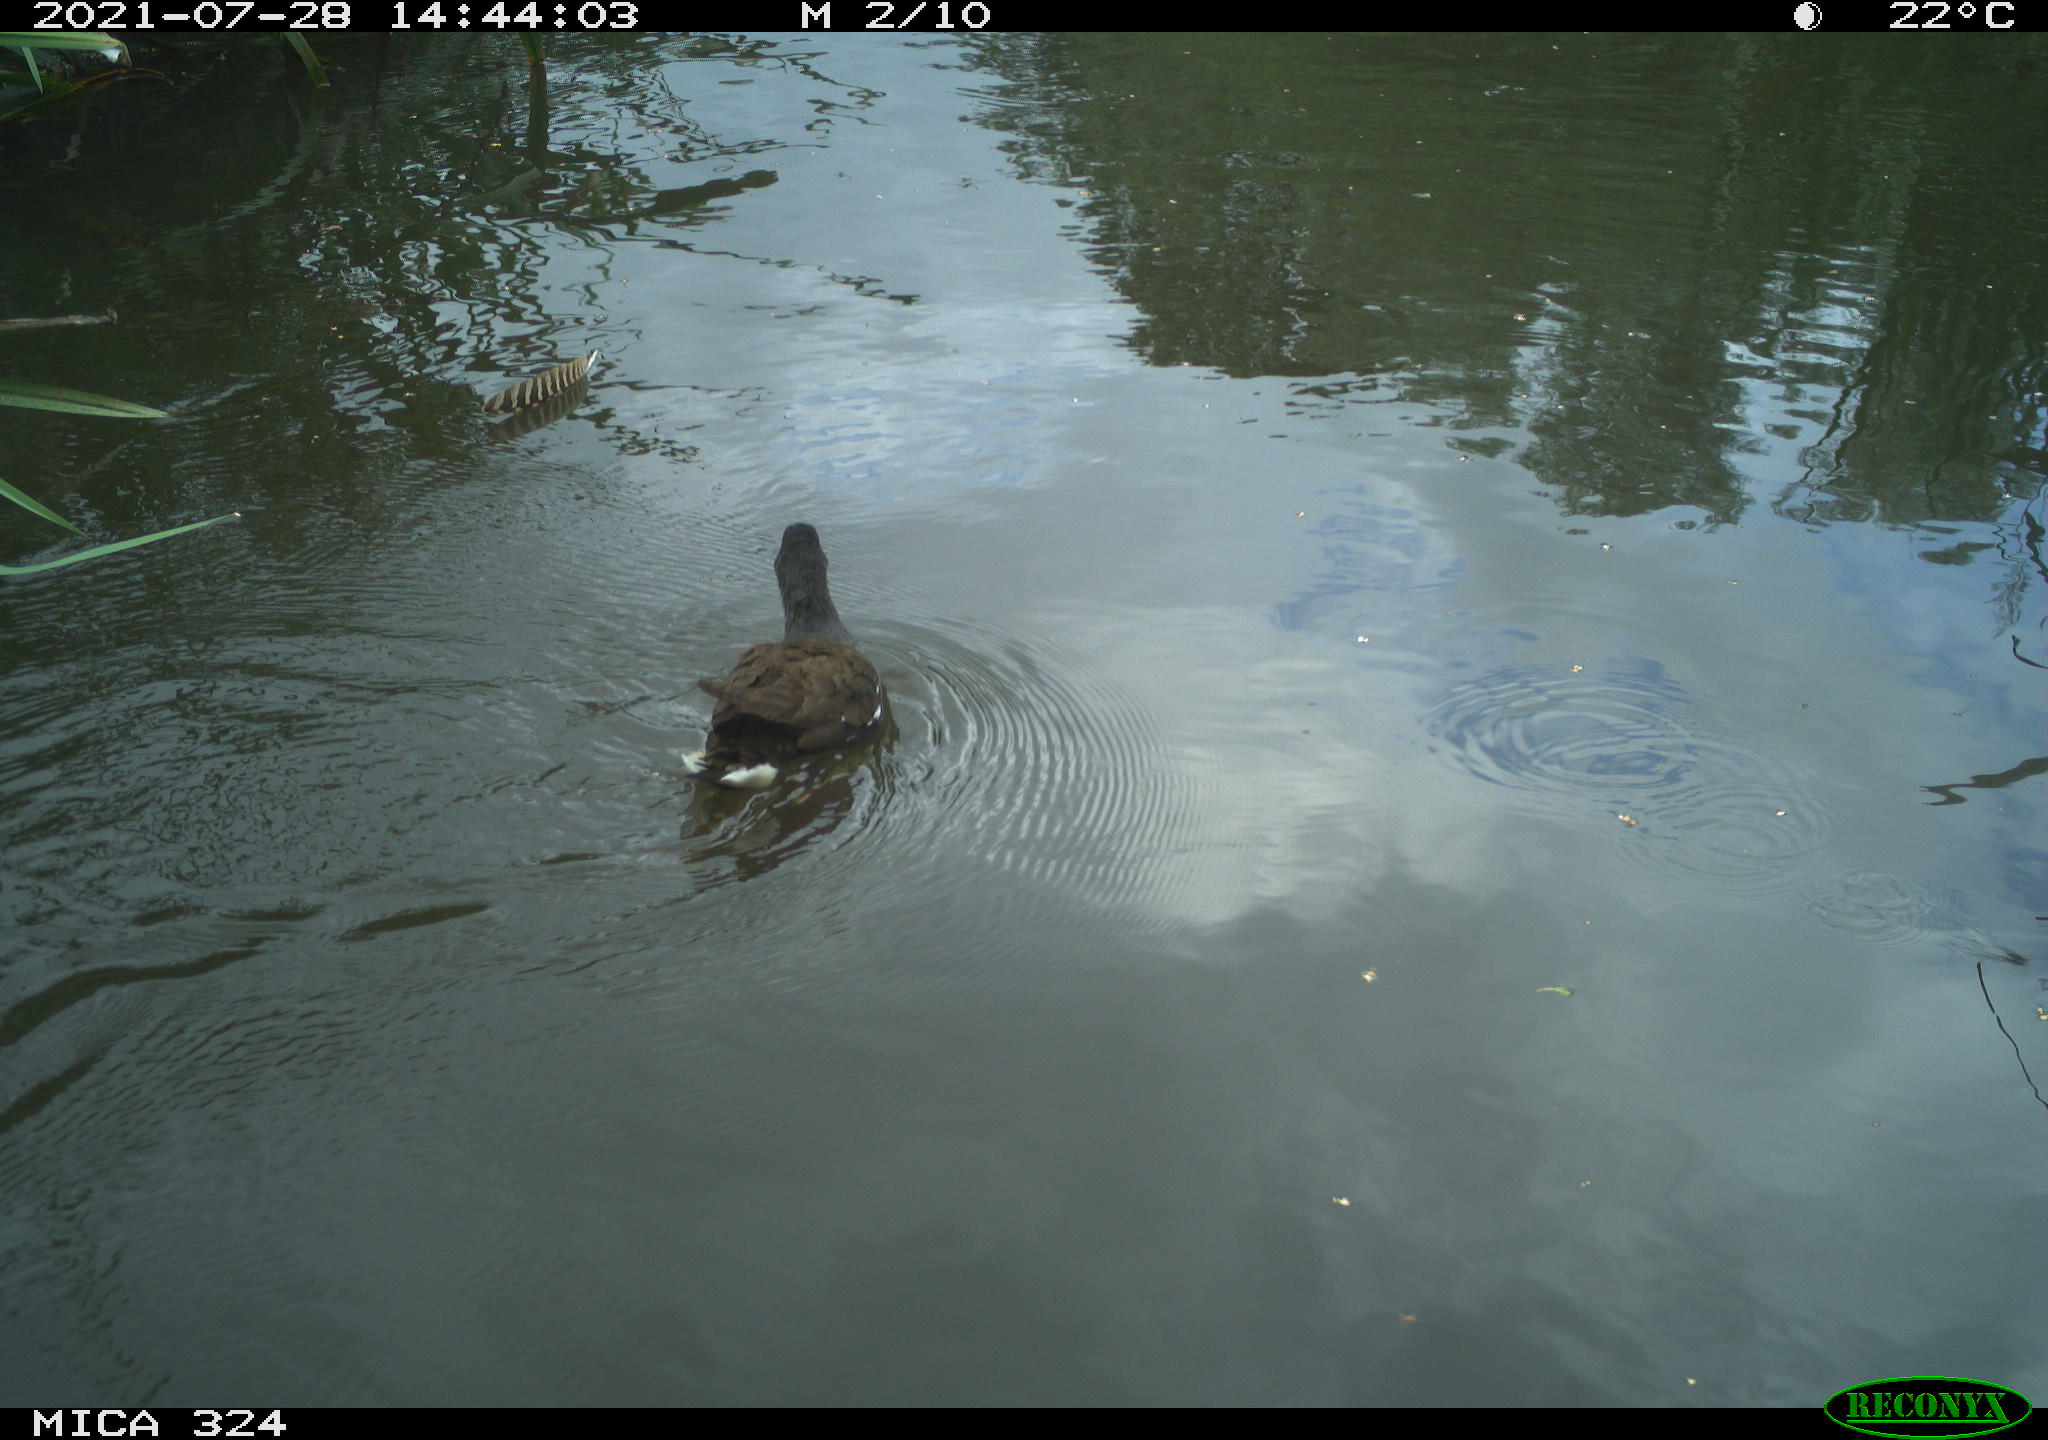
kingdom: Animalia
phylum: Chordata
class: Aves
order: Gruiformes
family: Rallidae
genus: Gallinula
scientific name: Gallinula chloropus
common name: Common moorhen
